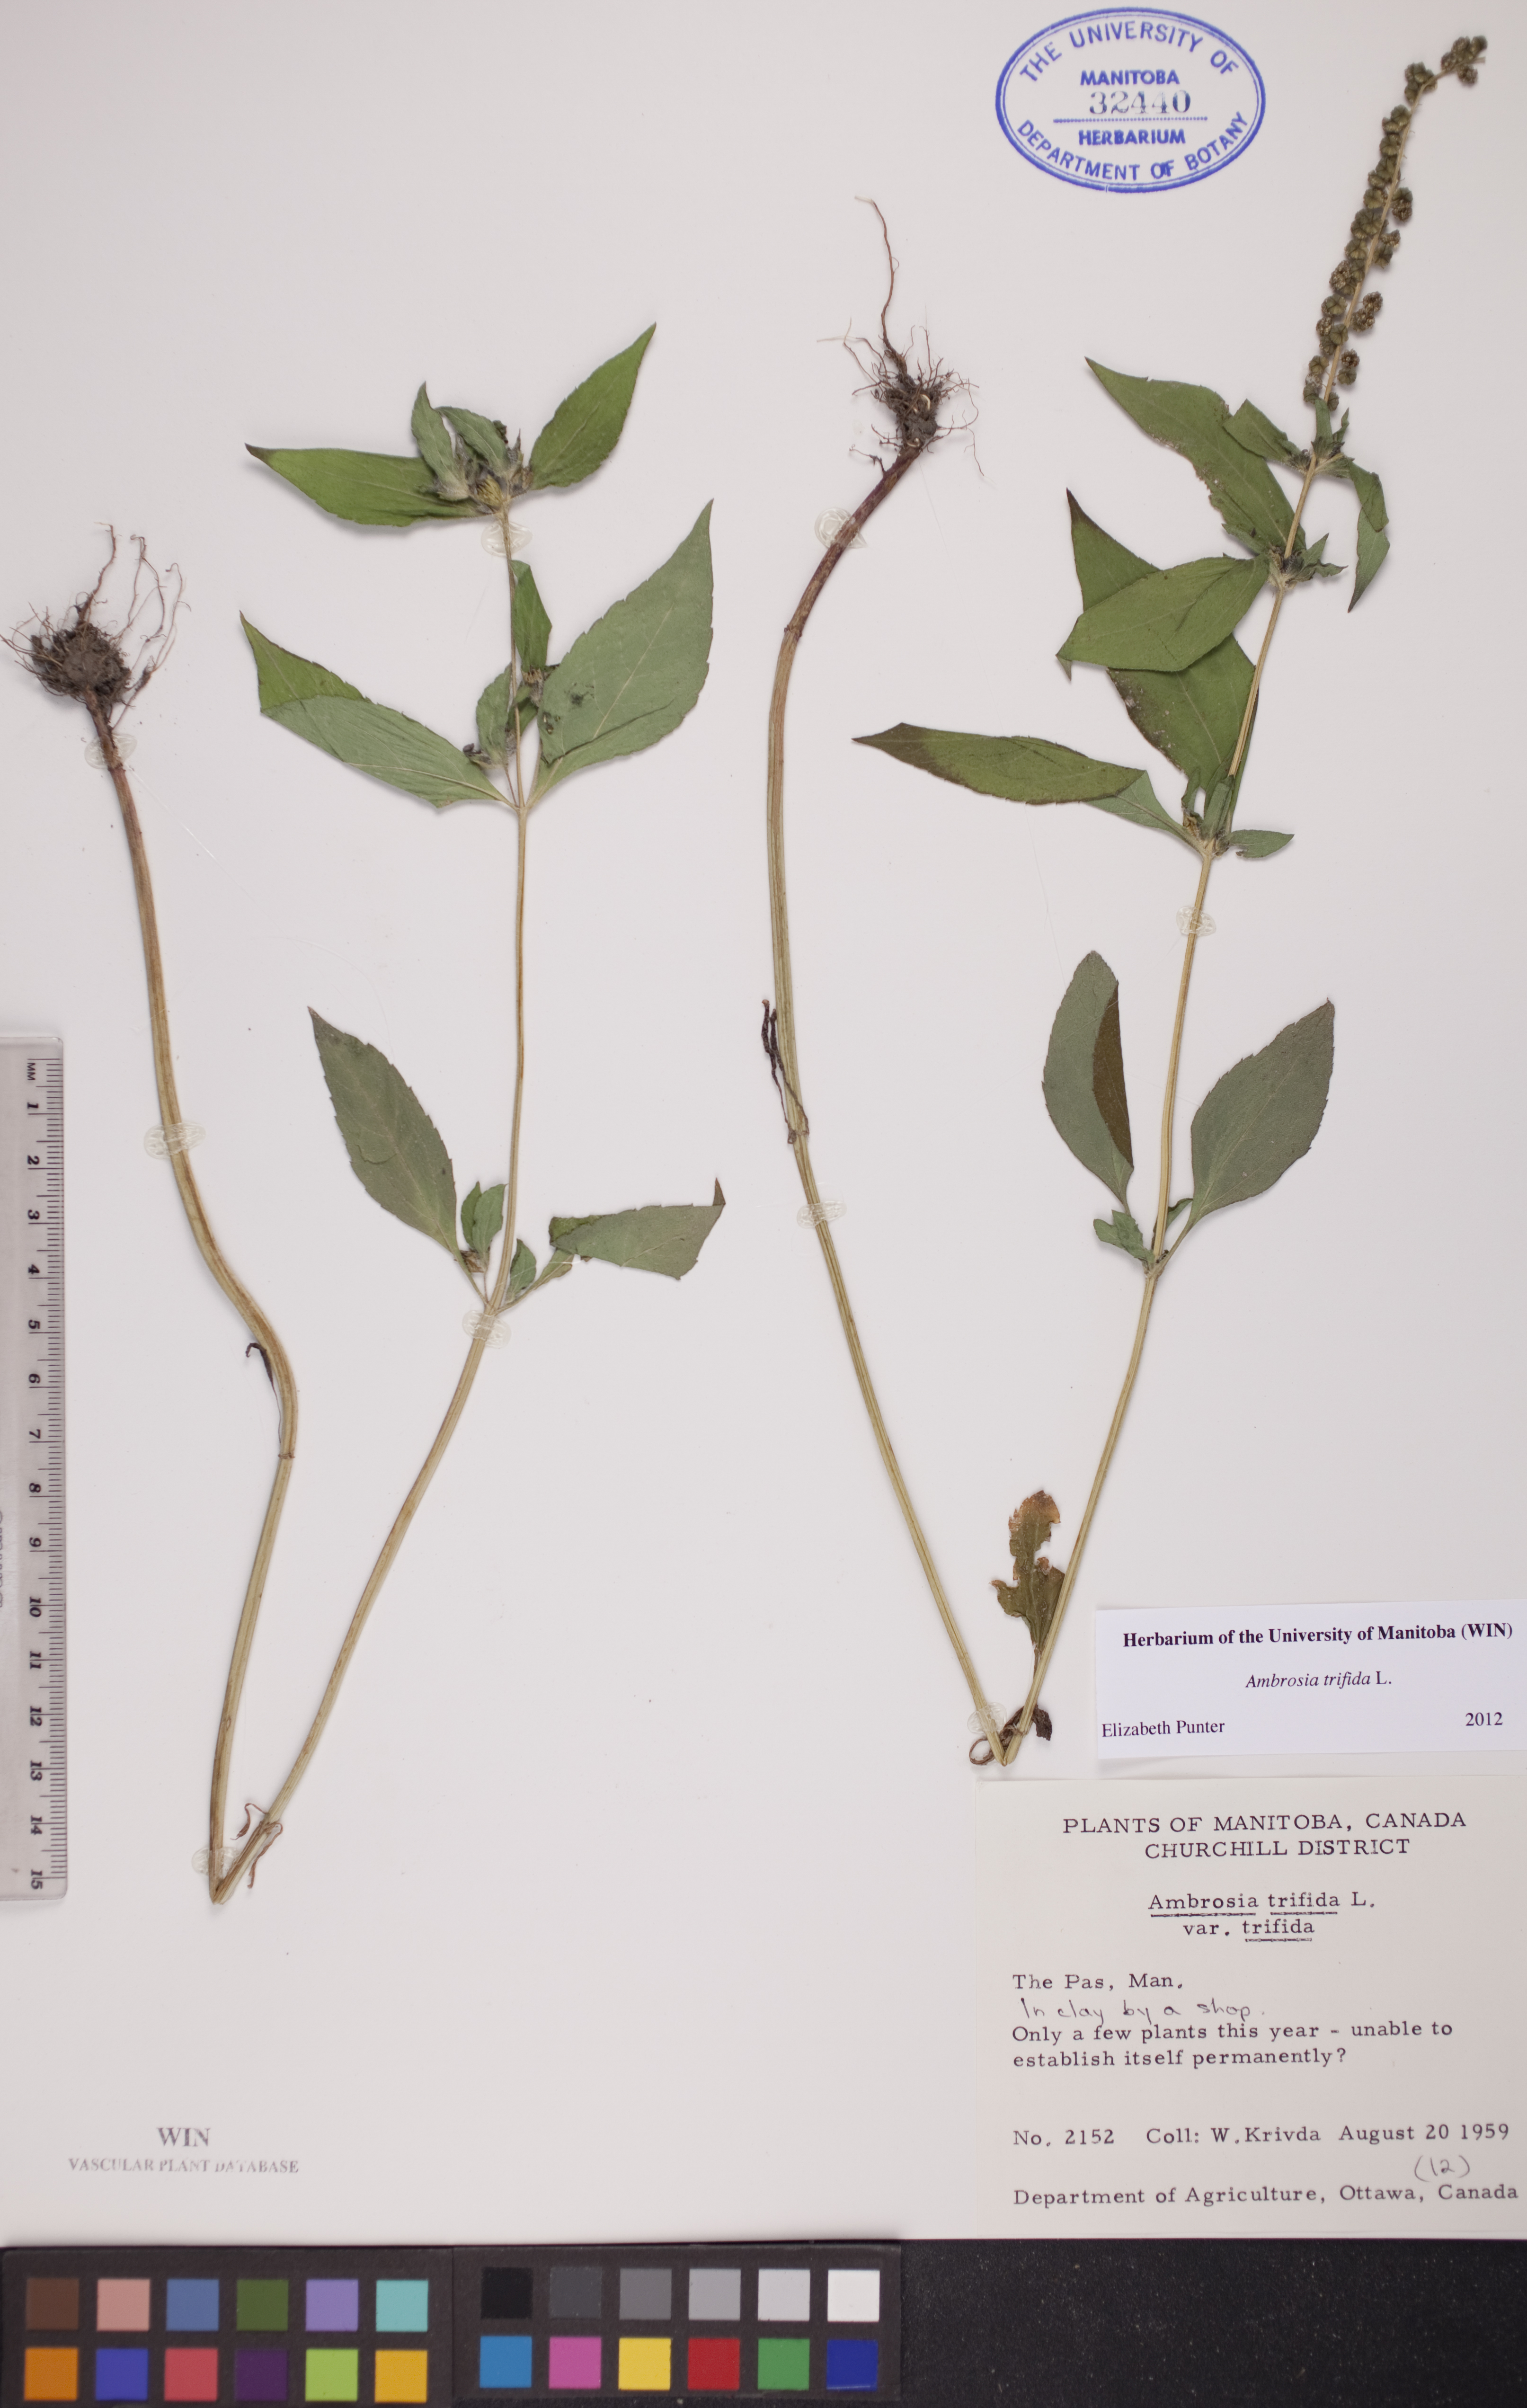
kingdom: Plantae
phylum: Tracheophyta
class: Magnoliopsida
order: Asterales
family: Asteraceae
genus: Ambrosia
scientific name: Ambrosia trifida
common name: Giant ragweed
